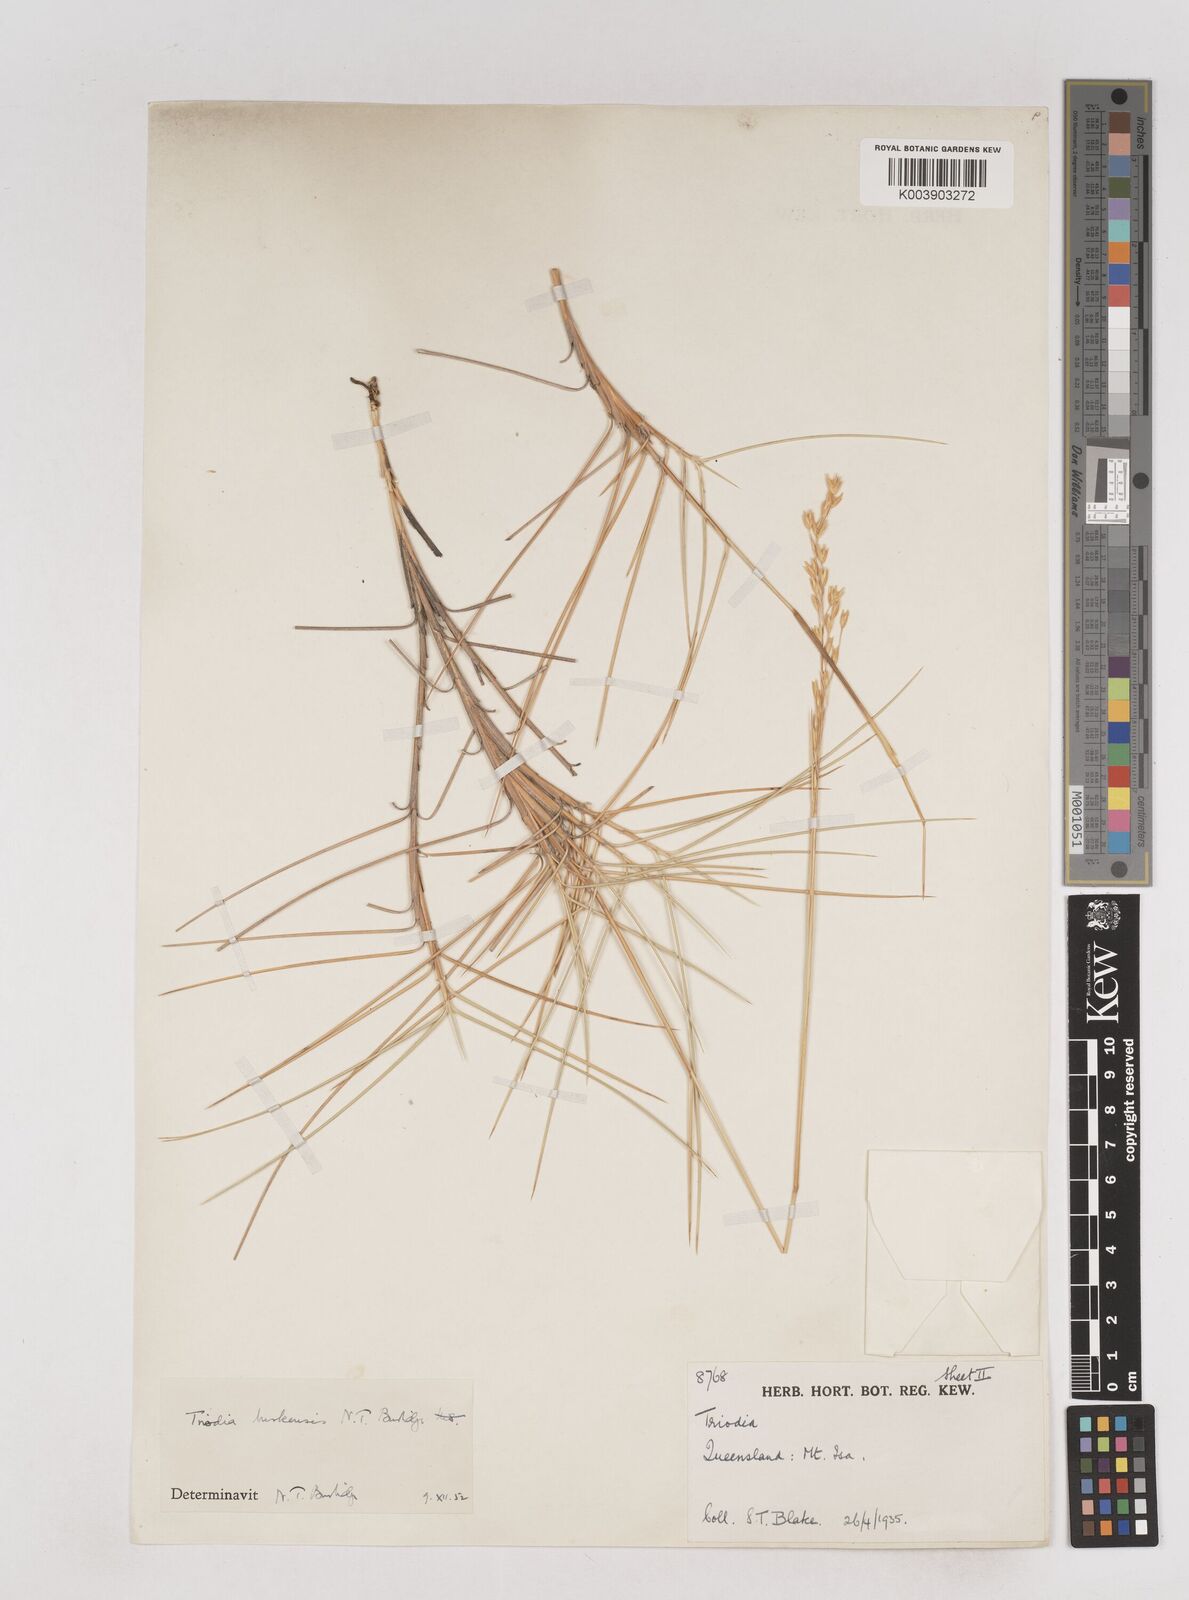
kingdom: Plantae
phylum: Tracheophyta
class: Liliopsida
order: Poales
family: Poaceae
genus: Triodia
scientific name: Triodia brizoides
